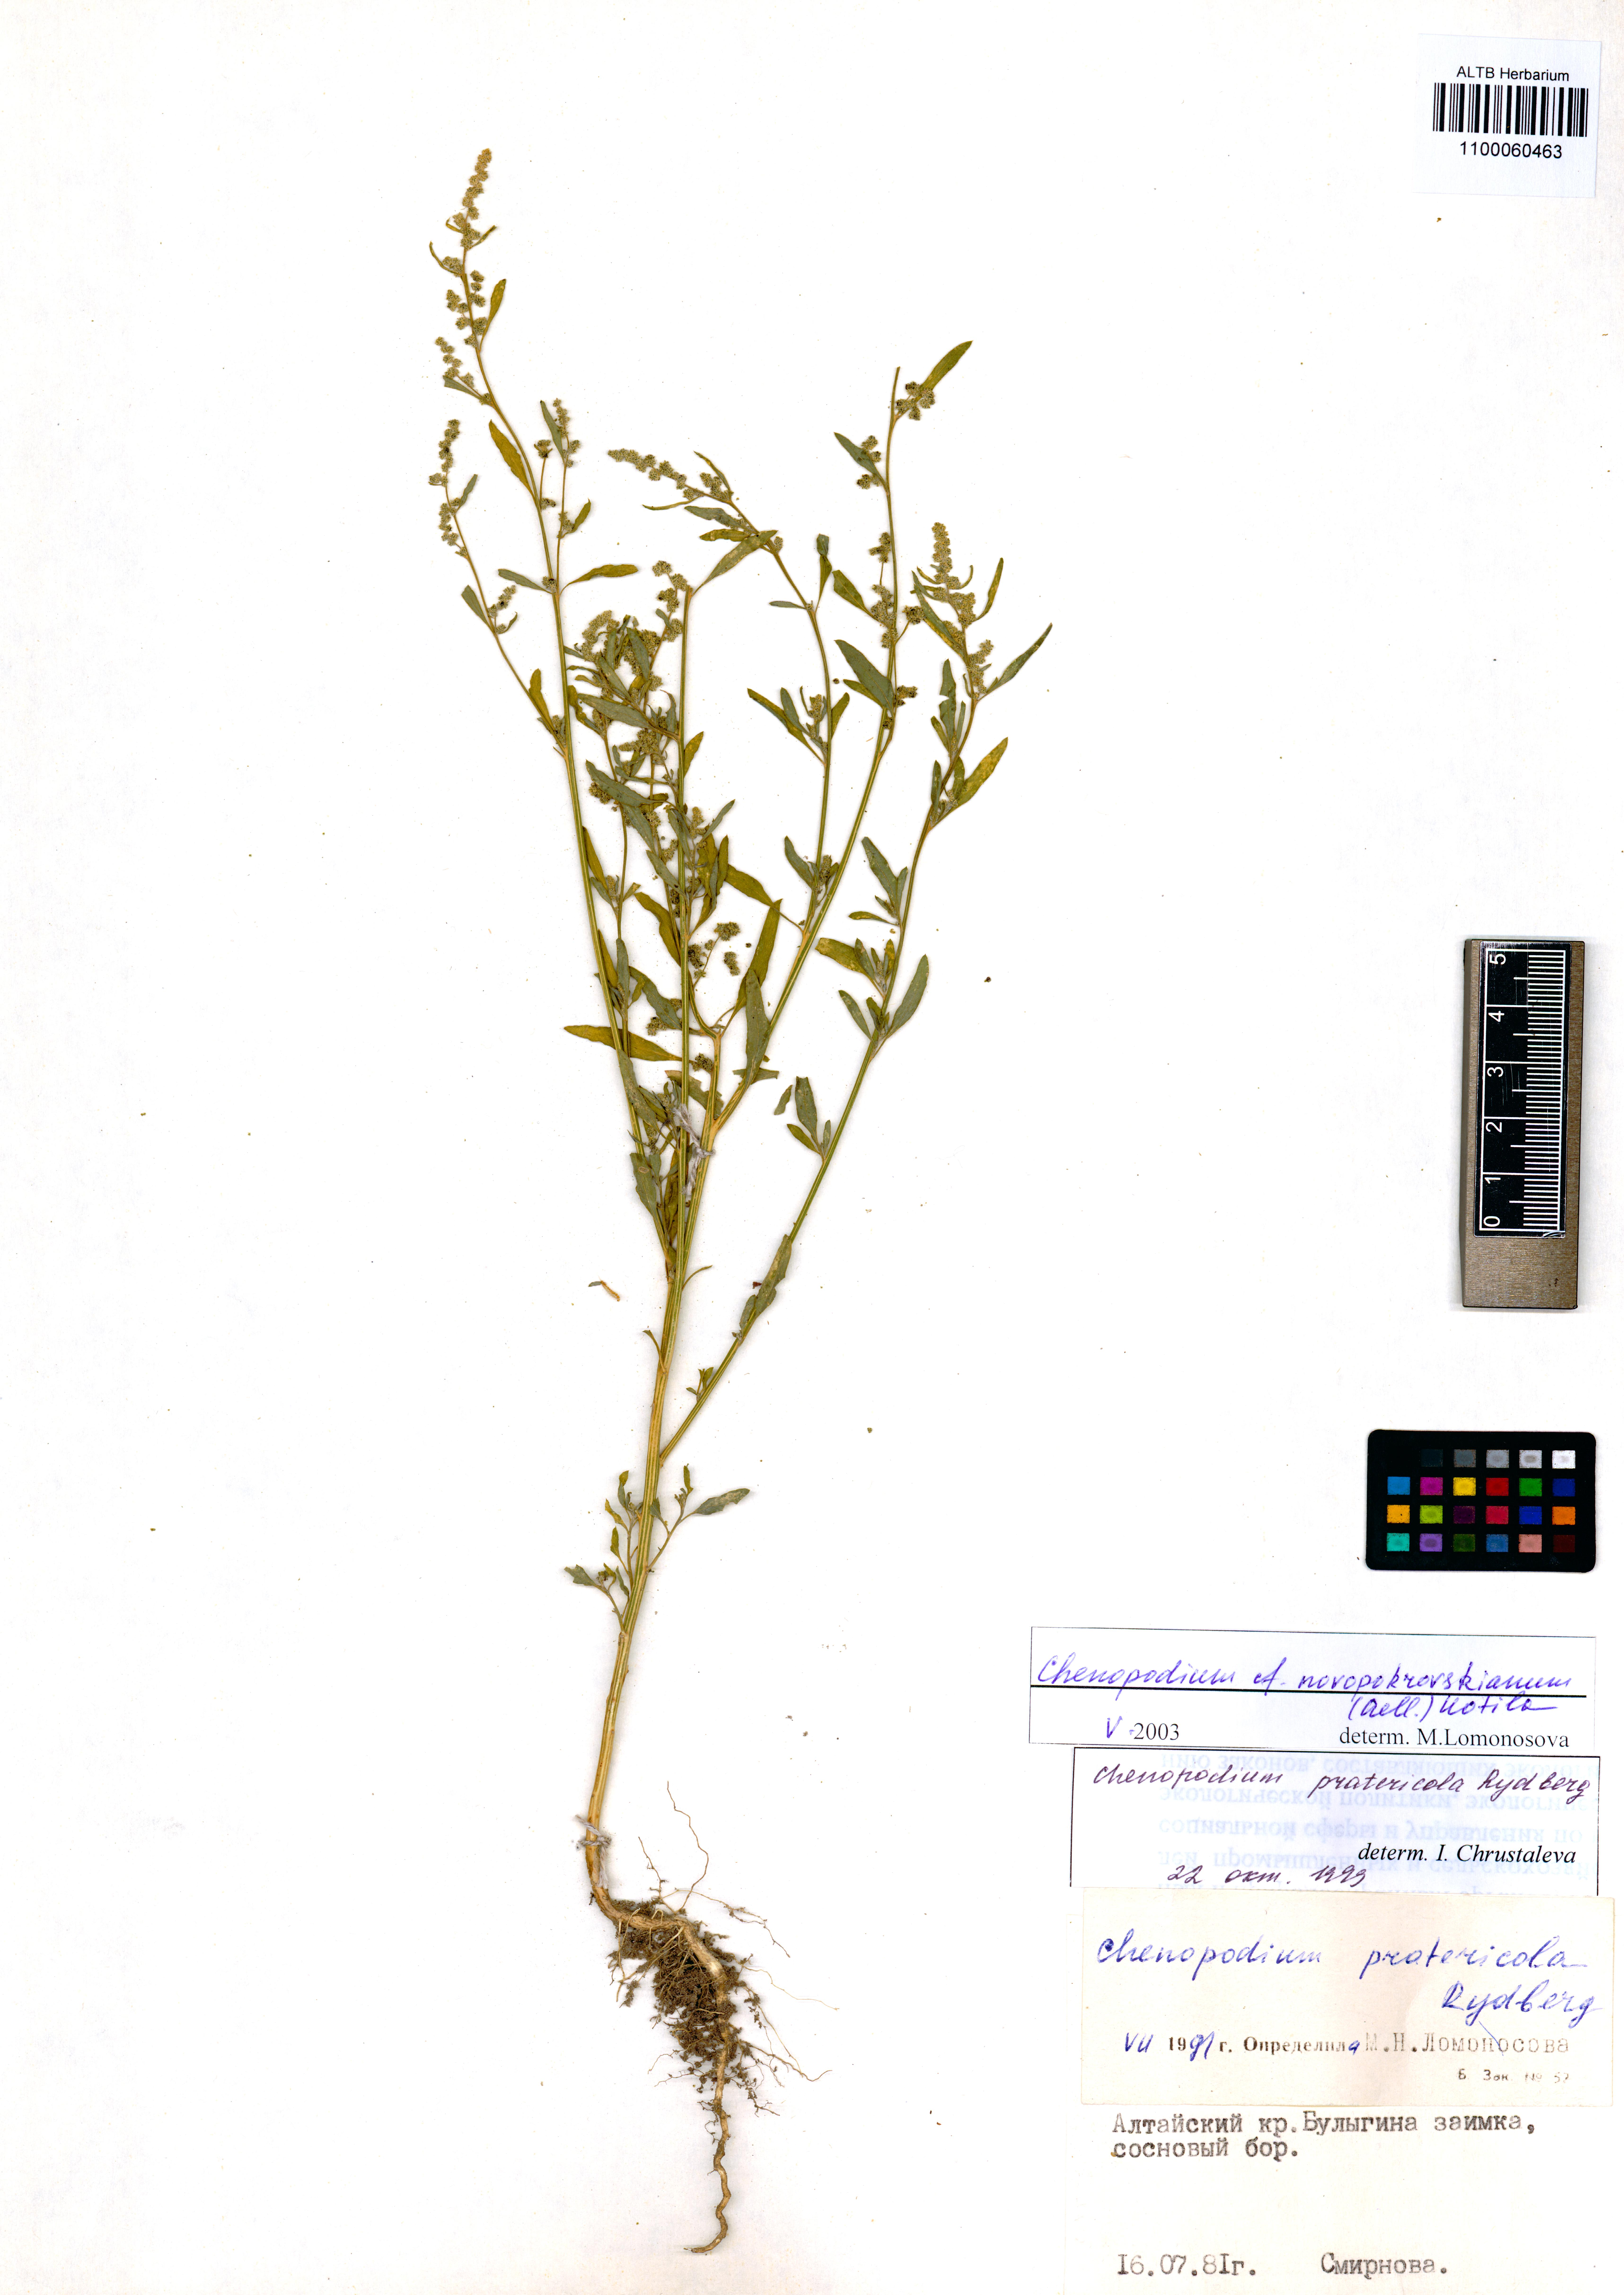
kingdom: Plantae
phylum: Tracheophyta
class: Magnoliopsida
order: Caryophyllales
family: Amaranthaceae
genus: Chenopodium
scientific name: Chenopodium novopokrovskyanum
